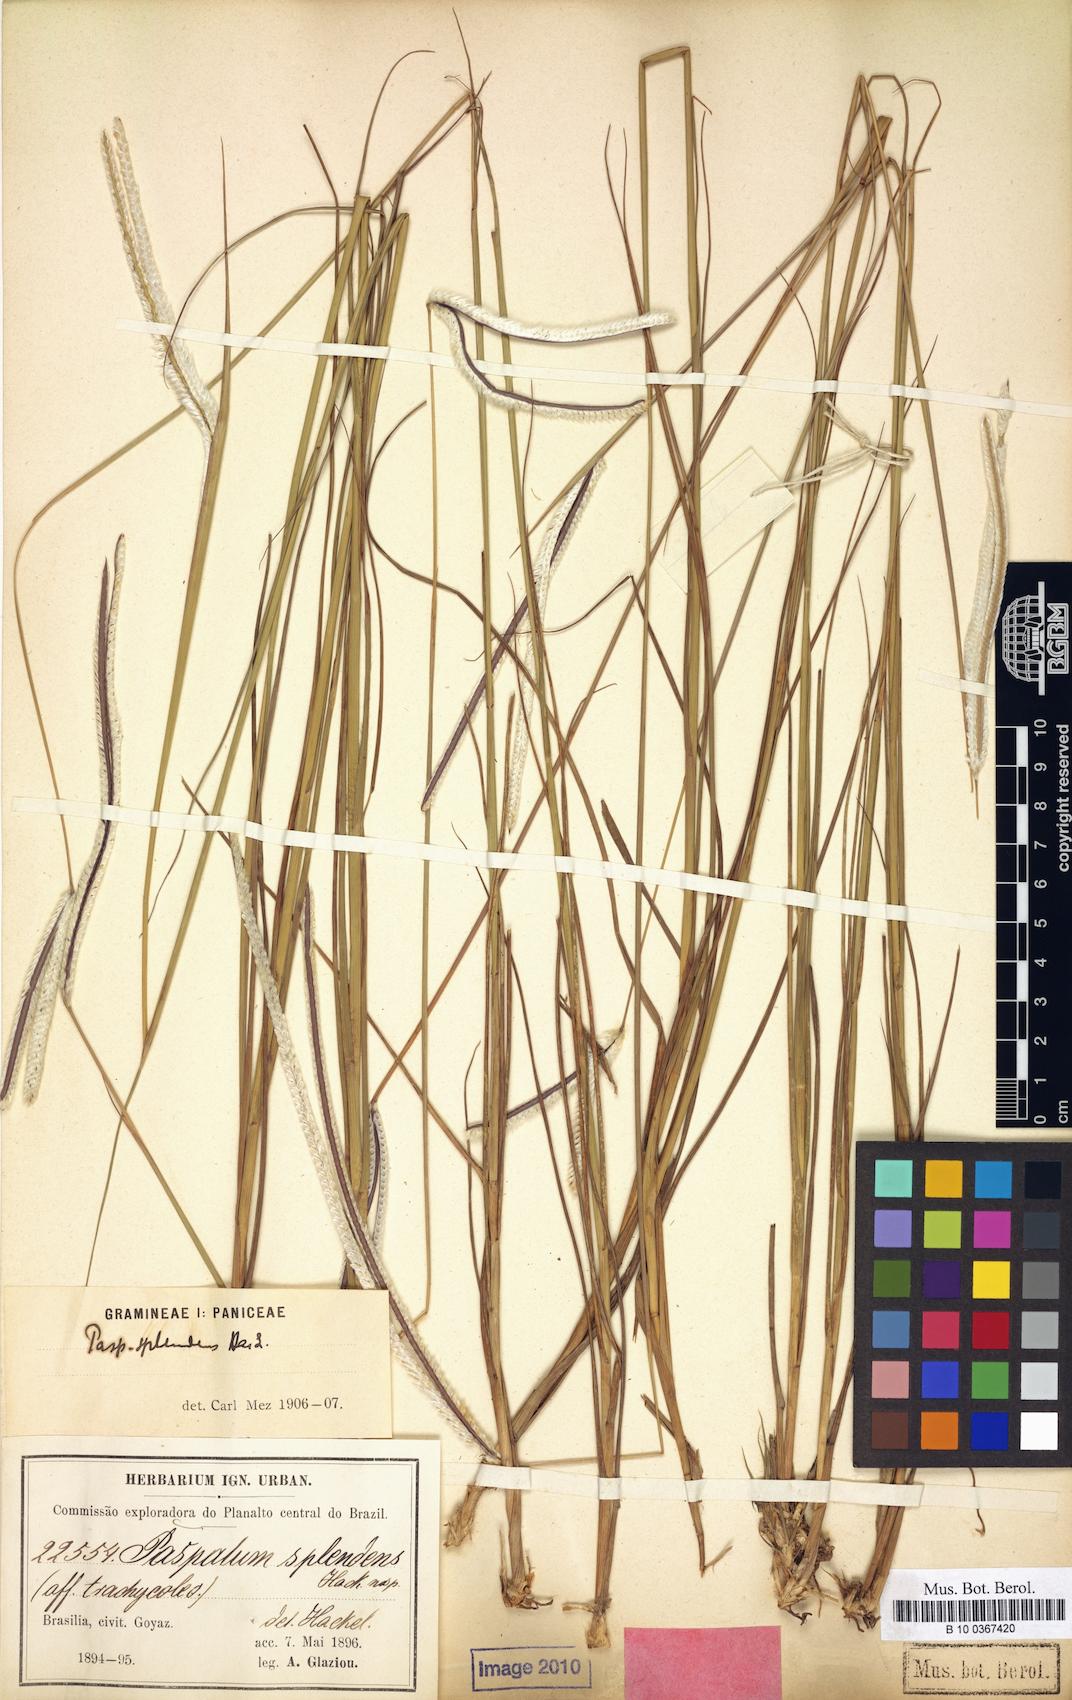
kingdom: Plantae
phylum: Tracheophyta
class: Liliopsida
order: Poales
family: Poaceae
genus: Paspalum
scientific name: Paspalum eucomum
